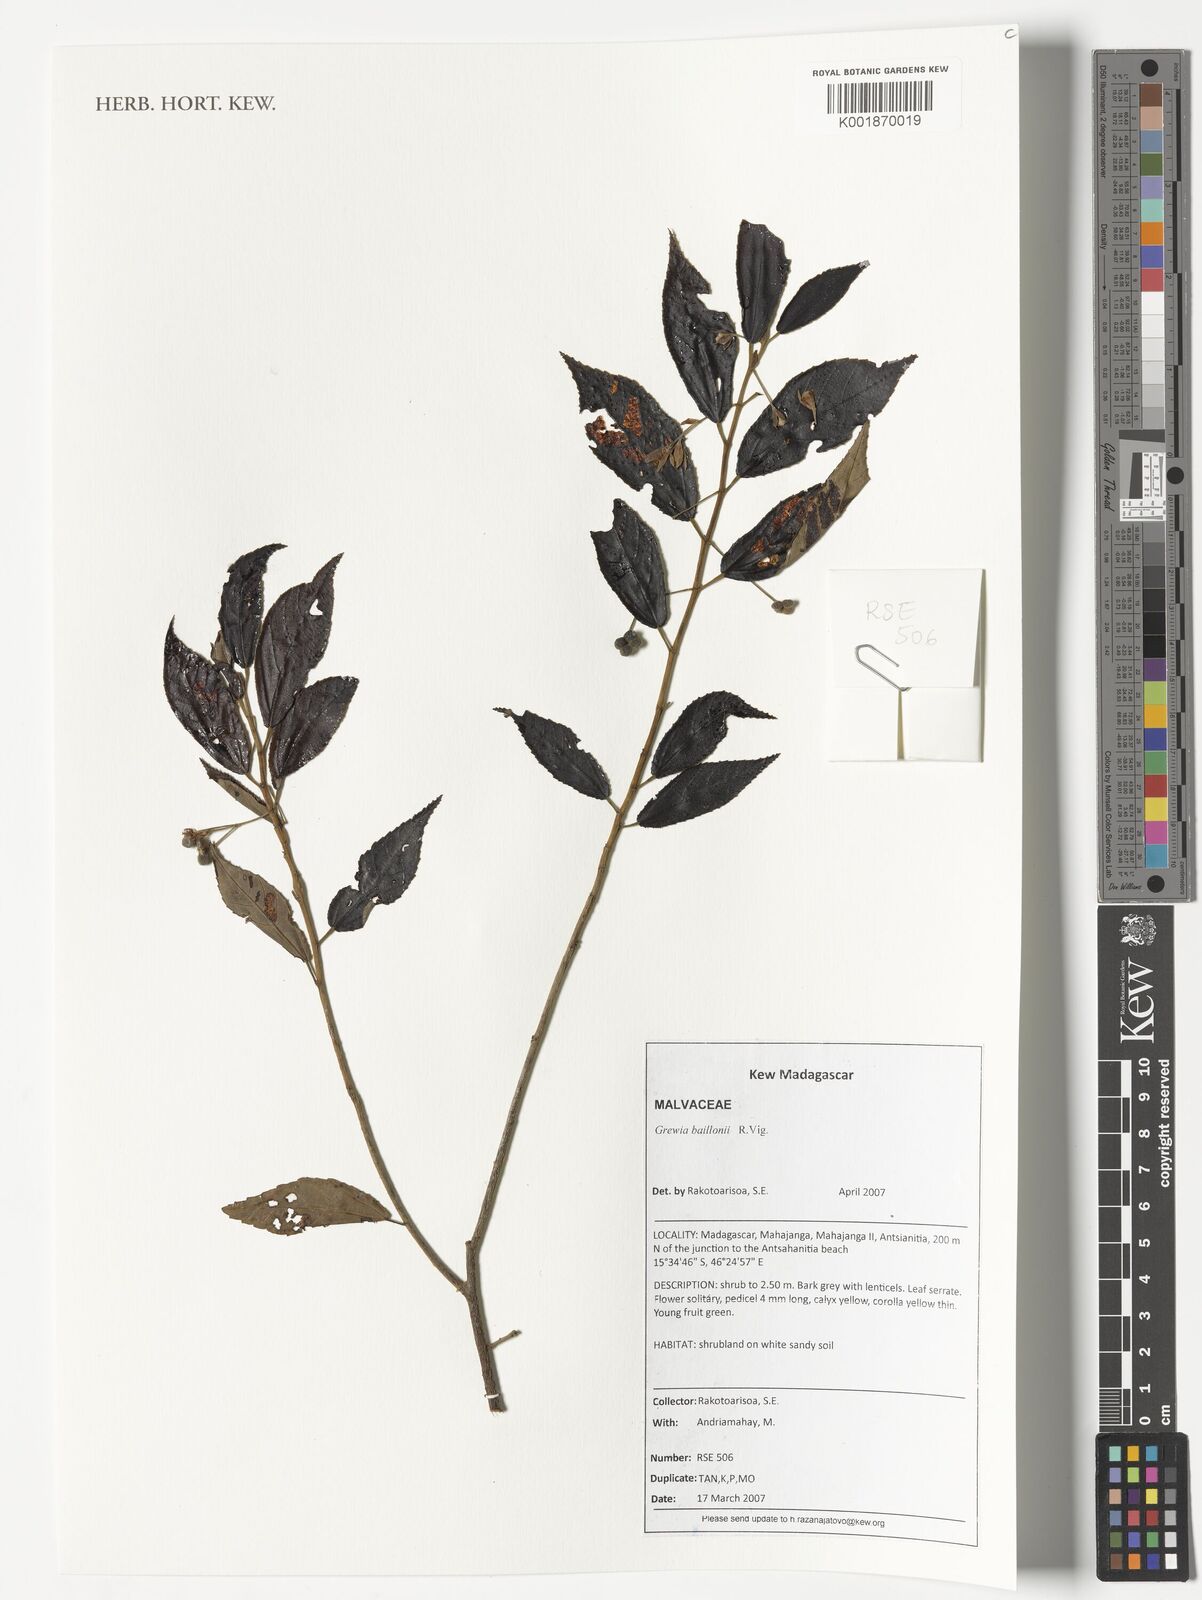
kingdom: Plantae
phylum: Tracheophyta
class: Magnoliopsida
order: Malvales
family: Malvaceae
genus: Grewia
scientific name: Grewia baillonii
